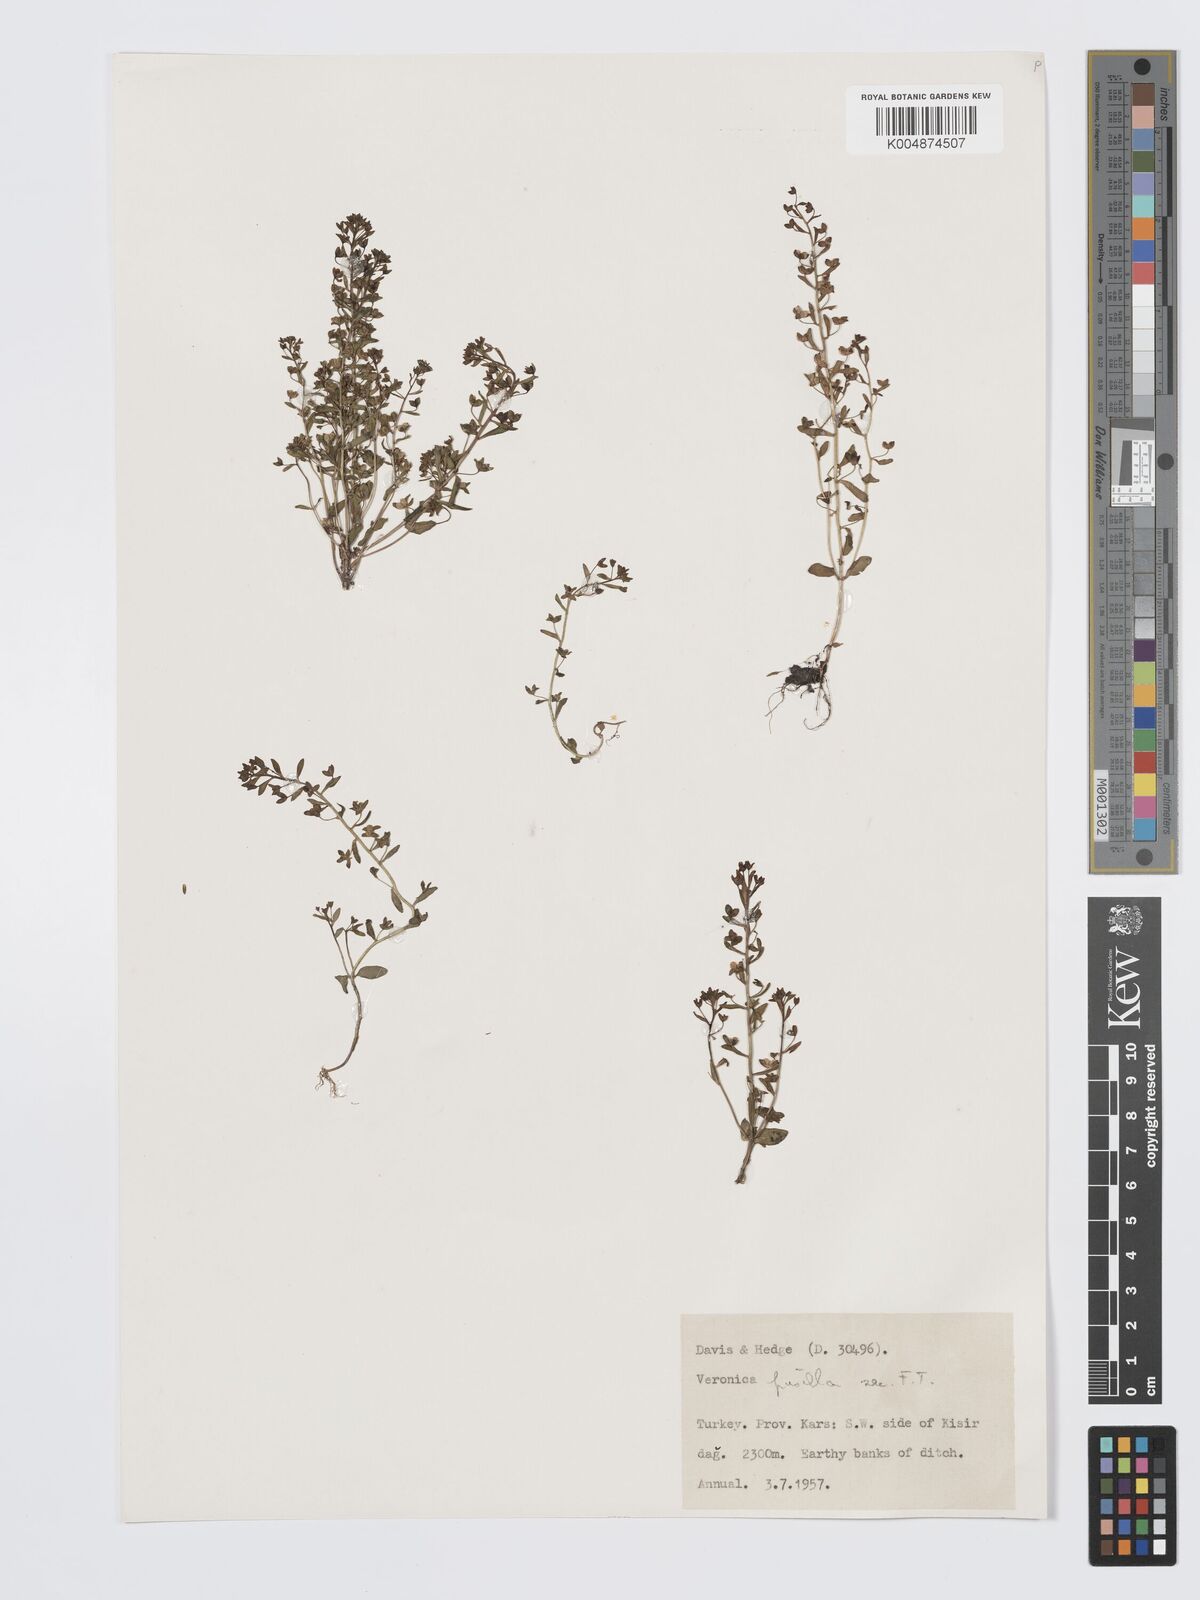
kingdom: Plantae
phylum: Tracheophyta
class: Magnoliopsida
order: Lamiales
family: Plantaginaceae
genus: Veronica
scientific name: Veronica pusilla
